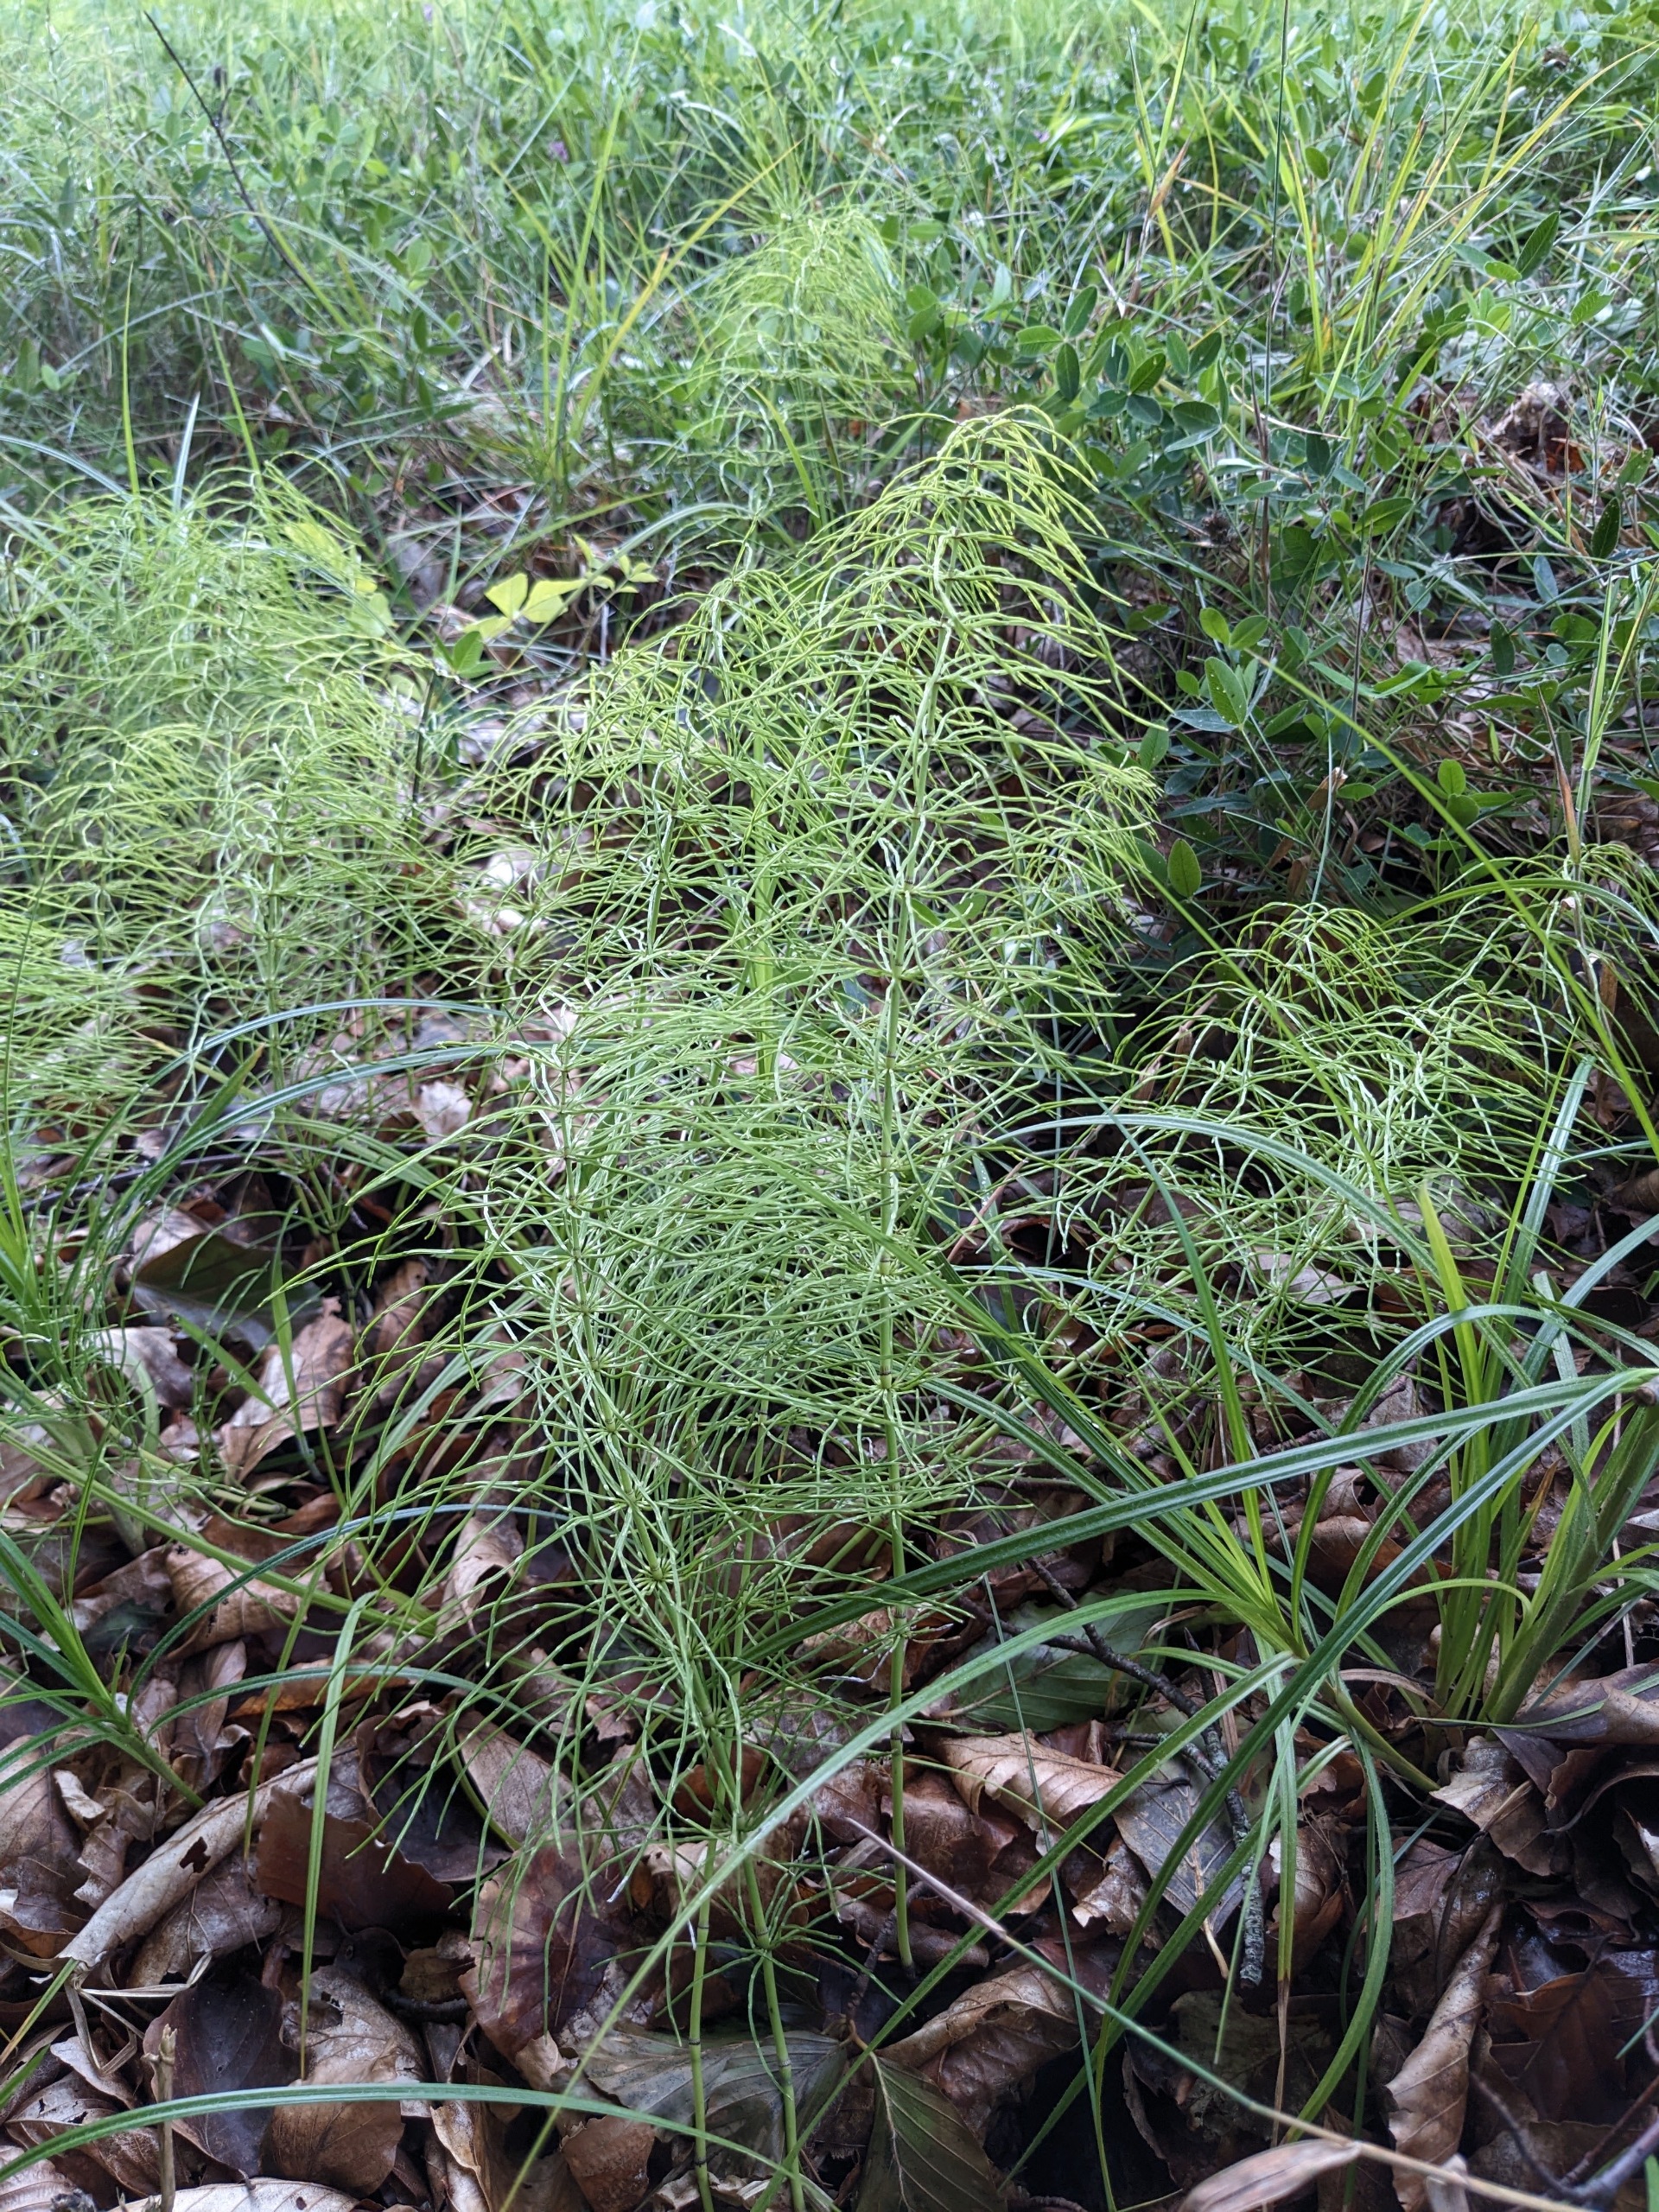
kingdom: Plantae
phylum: Tracheophyta
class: Polypodiopsida
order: Equisetales
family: Equisetaceae
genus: Equisetum
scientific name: Equisetum pratense
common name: Lund-padderok
